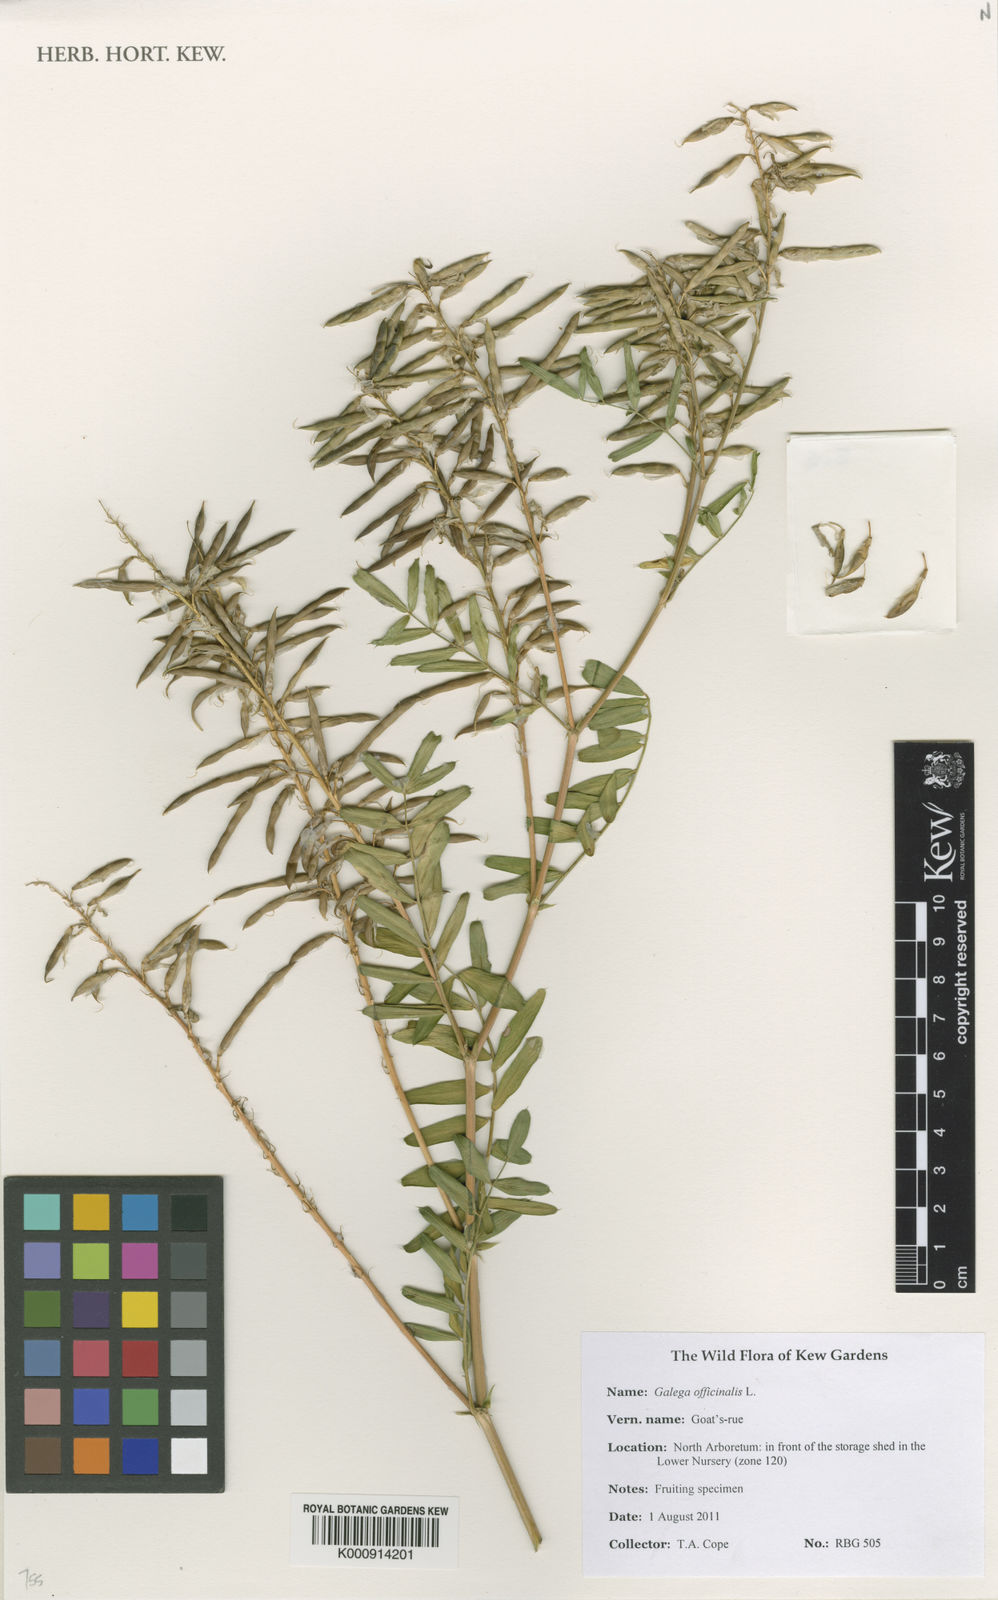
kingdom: Plantae
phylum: Tracheophyta
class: Magnoliopsida
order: Fabales
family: Fabaceae
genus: Galega
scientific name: Galega officinalis
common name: Goat's-rue
